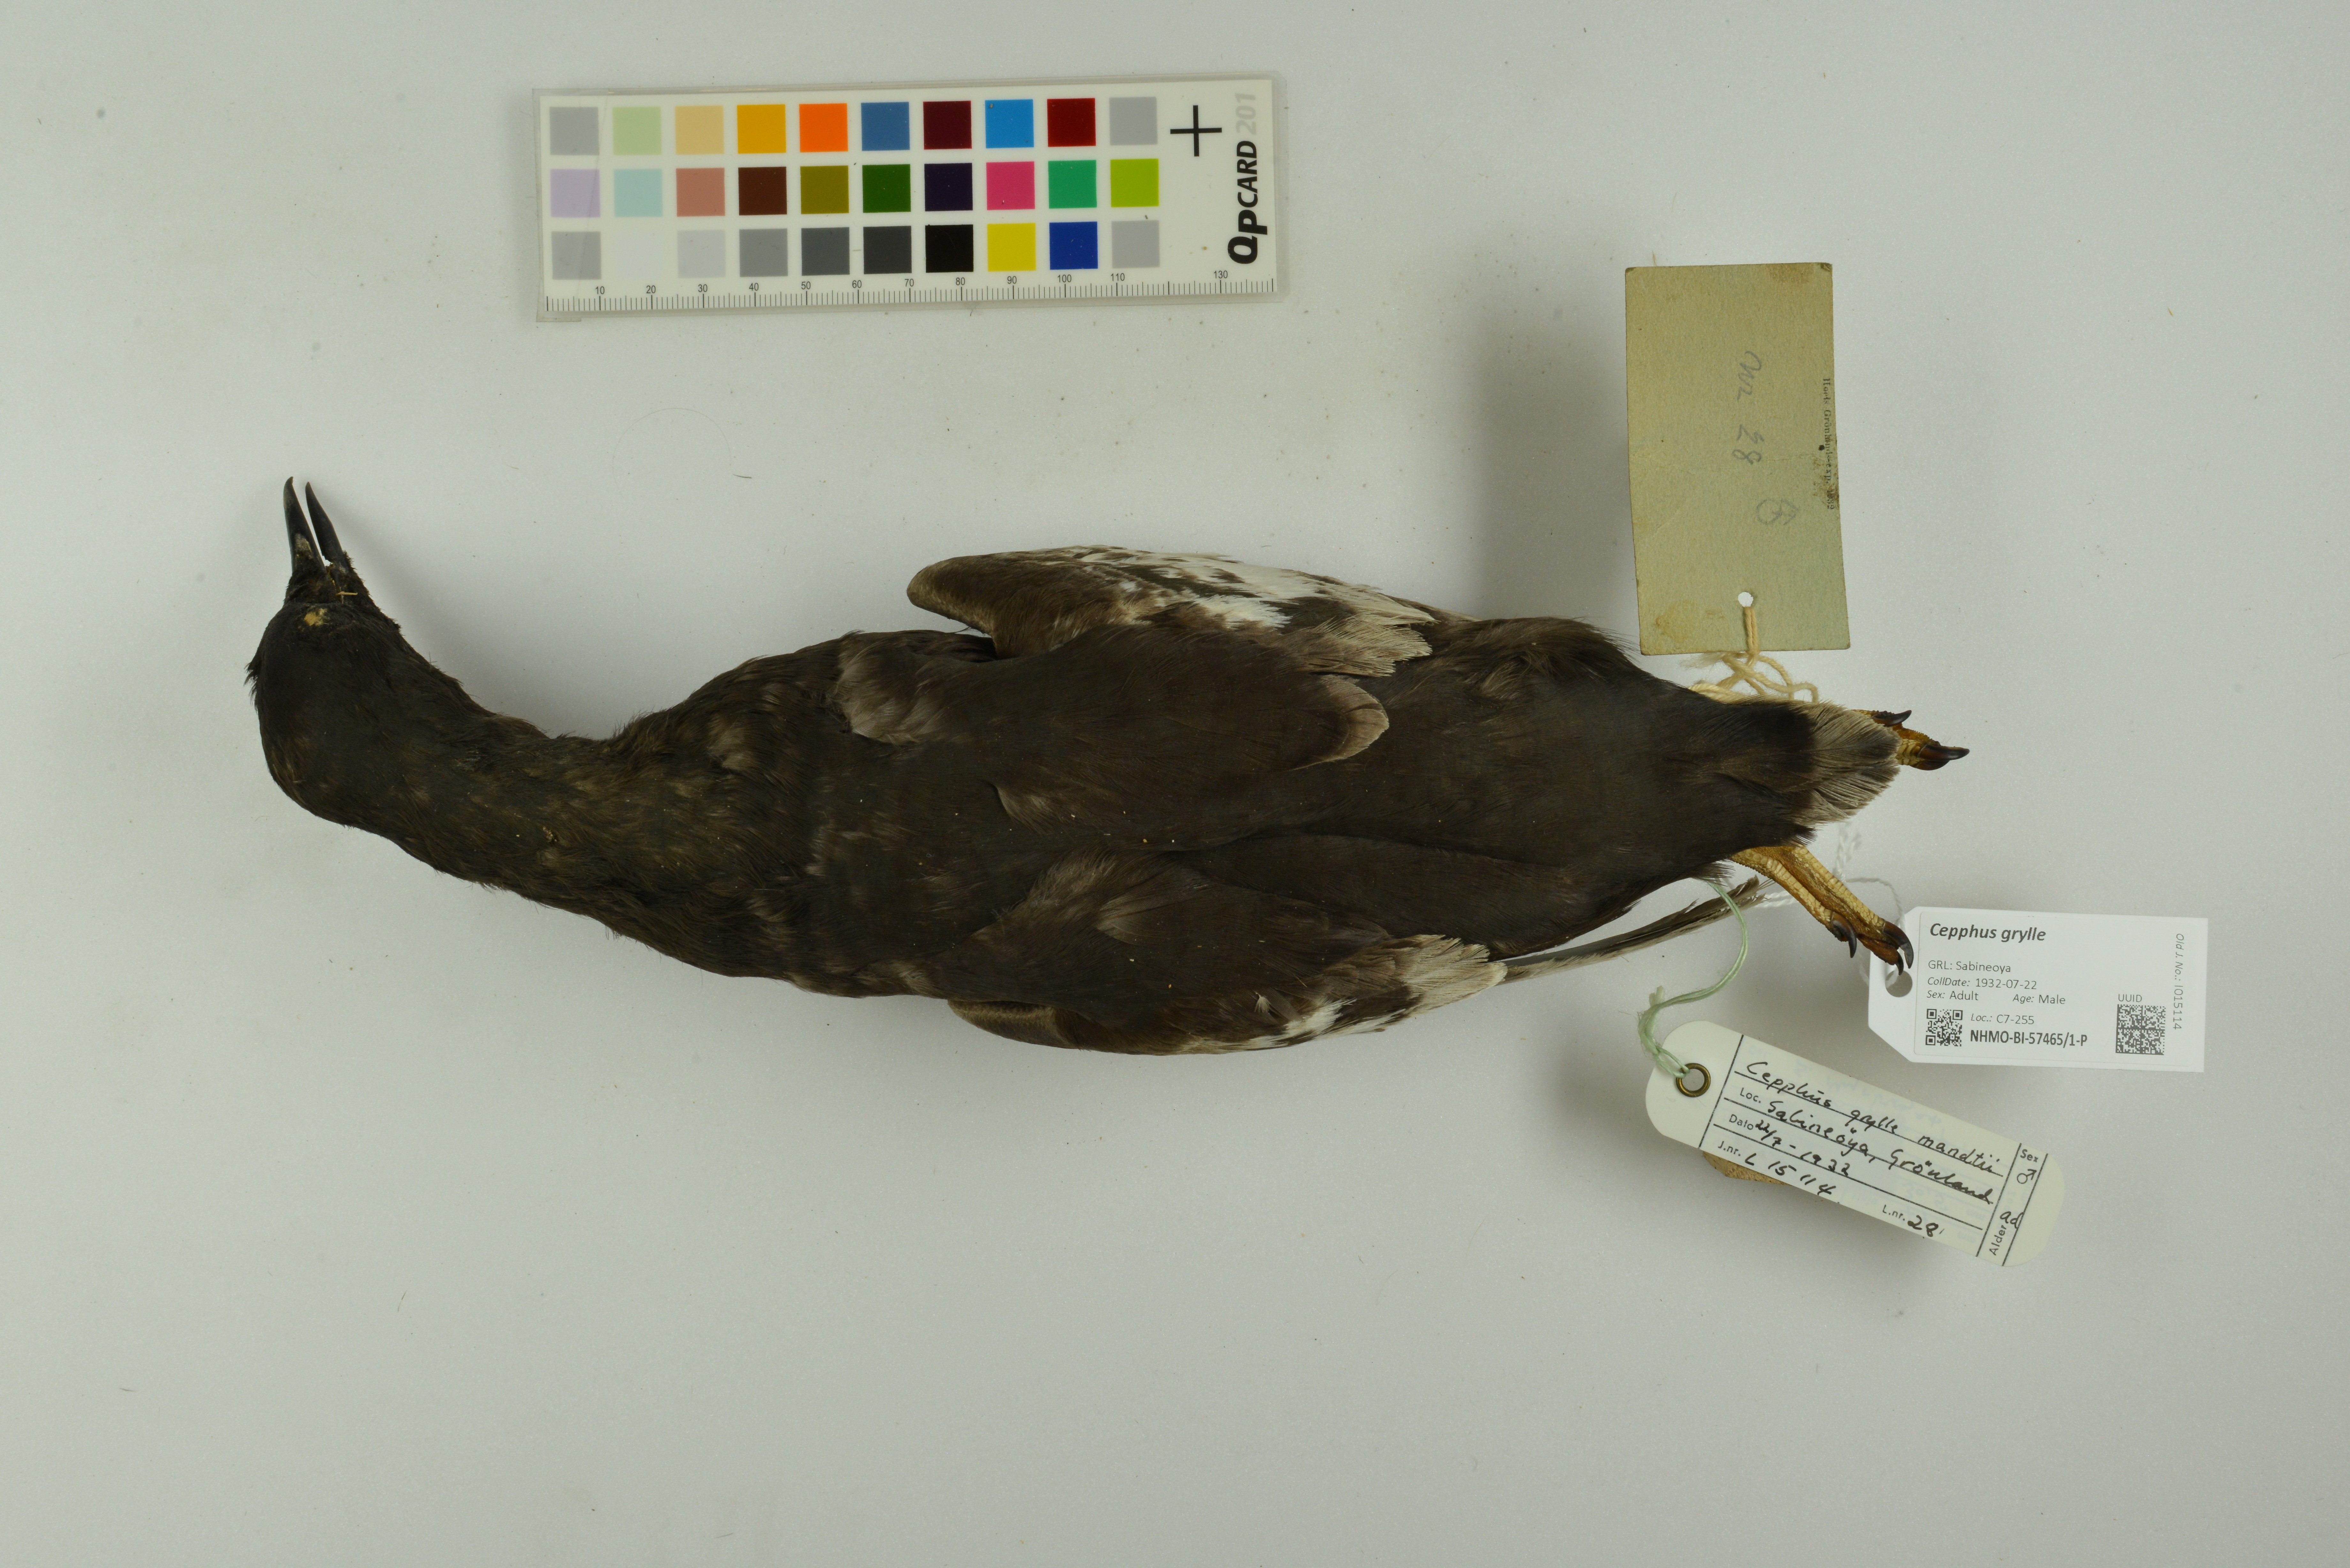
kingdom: Animalia
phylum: Chordata
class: Aves
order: Charadriiformes
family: Alcidae
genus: Cepphus
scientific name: Cepphus grylle
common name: Black guillemot
